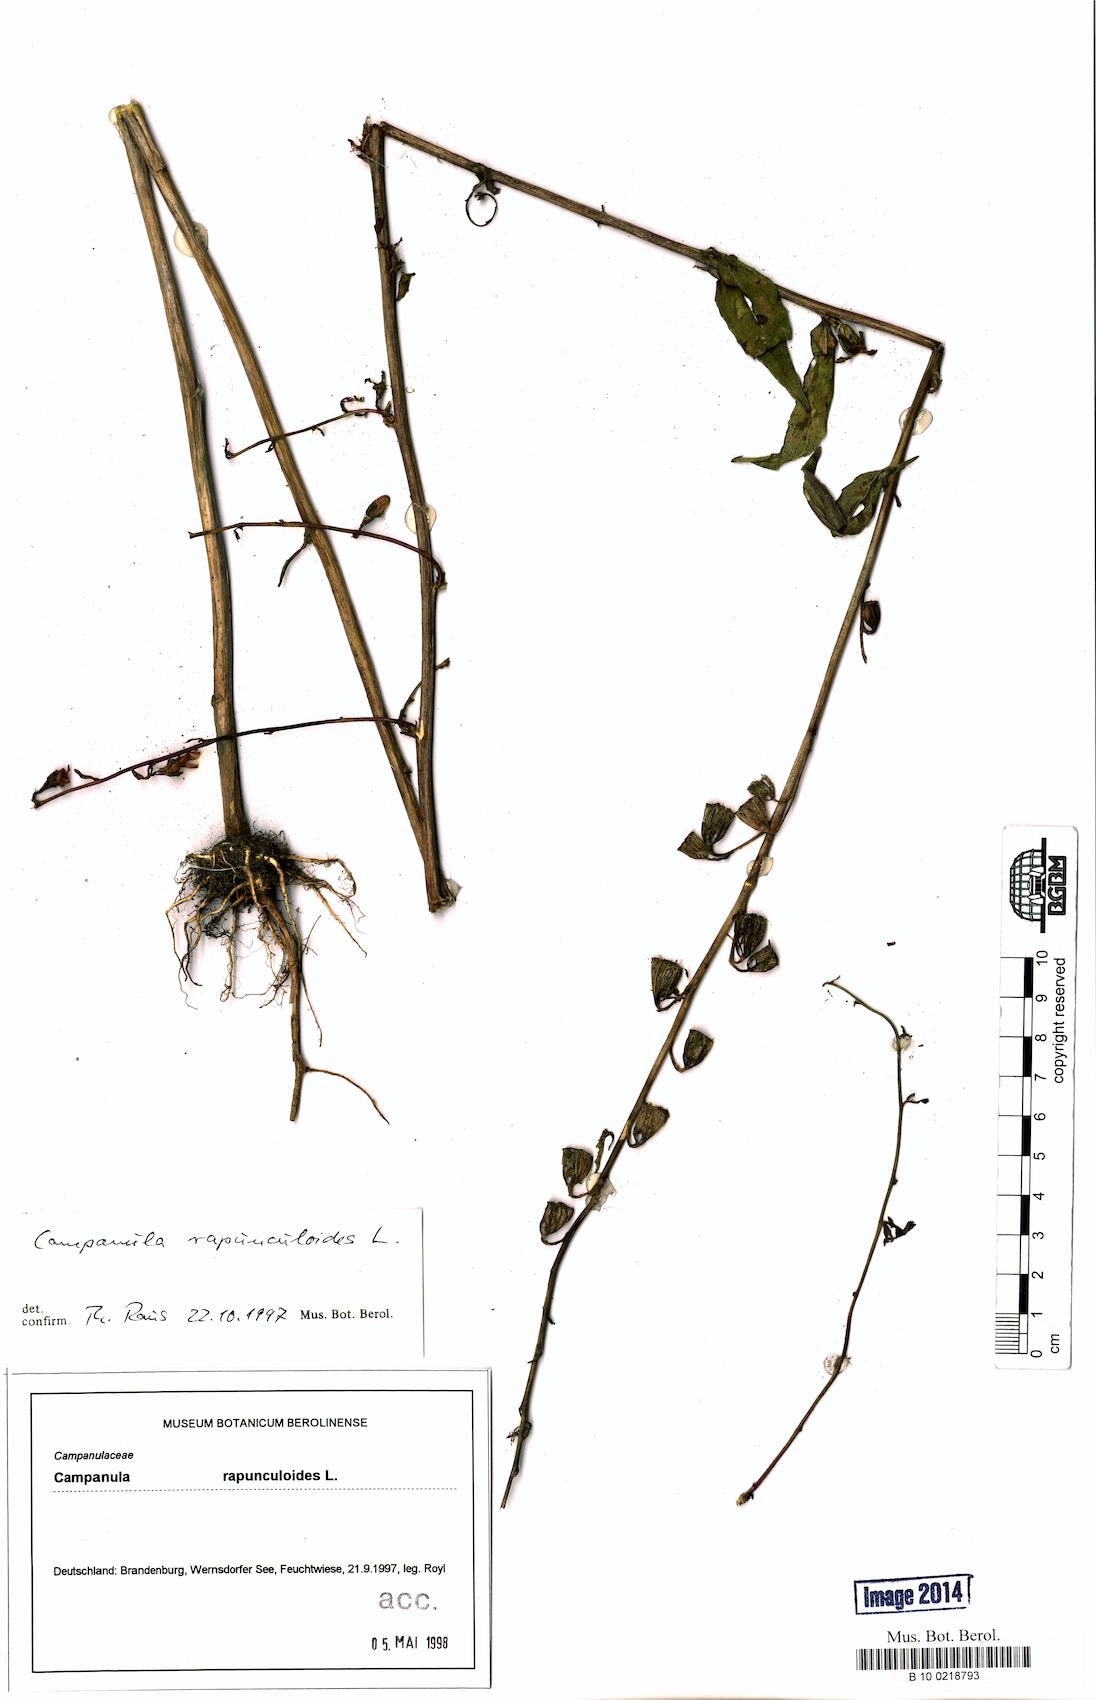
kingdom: Plantae
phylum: Tracheophyta
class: Magnoliopsida
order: Asterales
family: Campanulaceae
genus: Campanula
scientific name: Campanula rapunculoides
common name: Creeping bellflower
